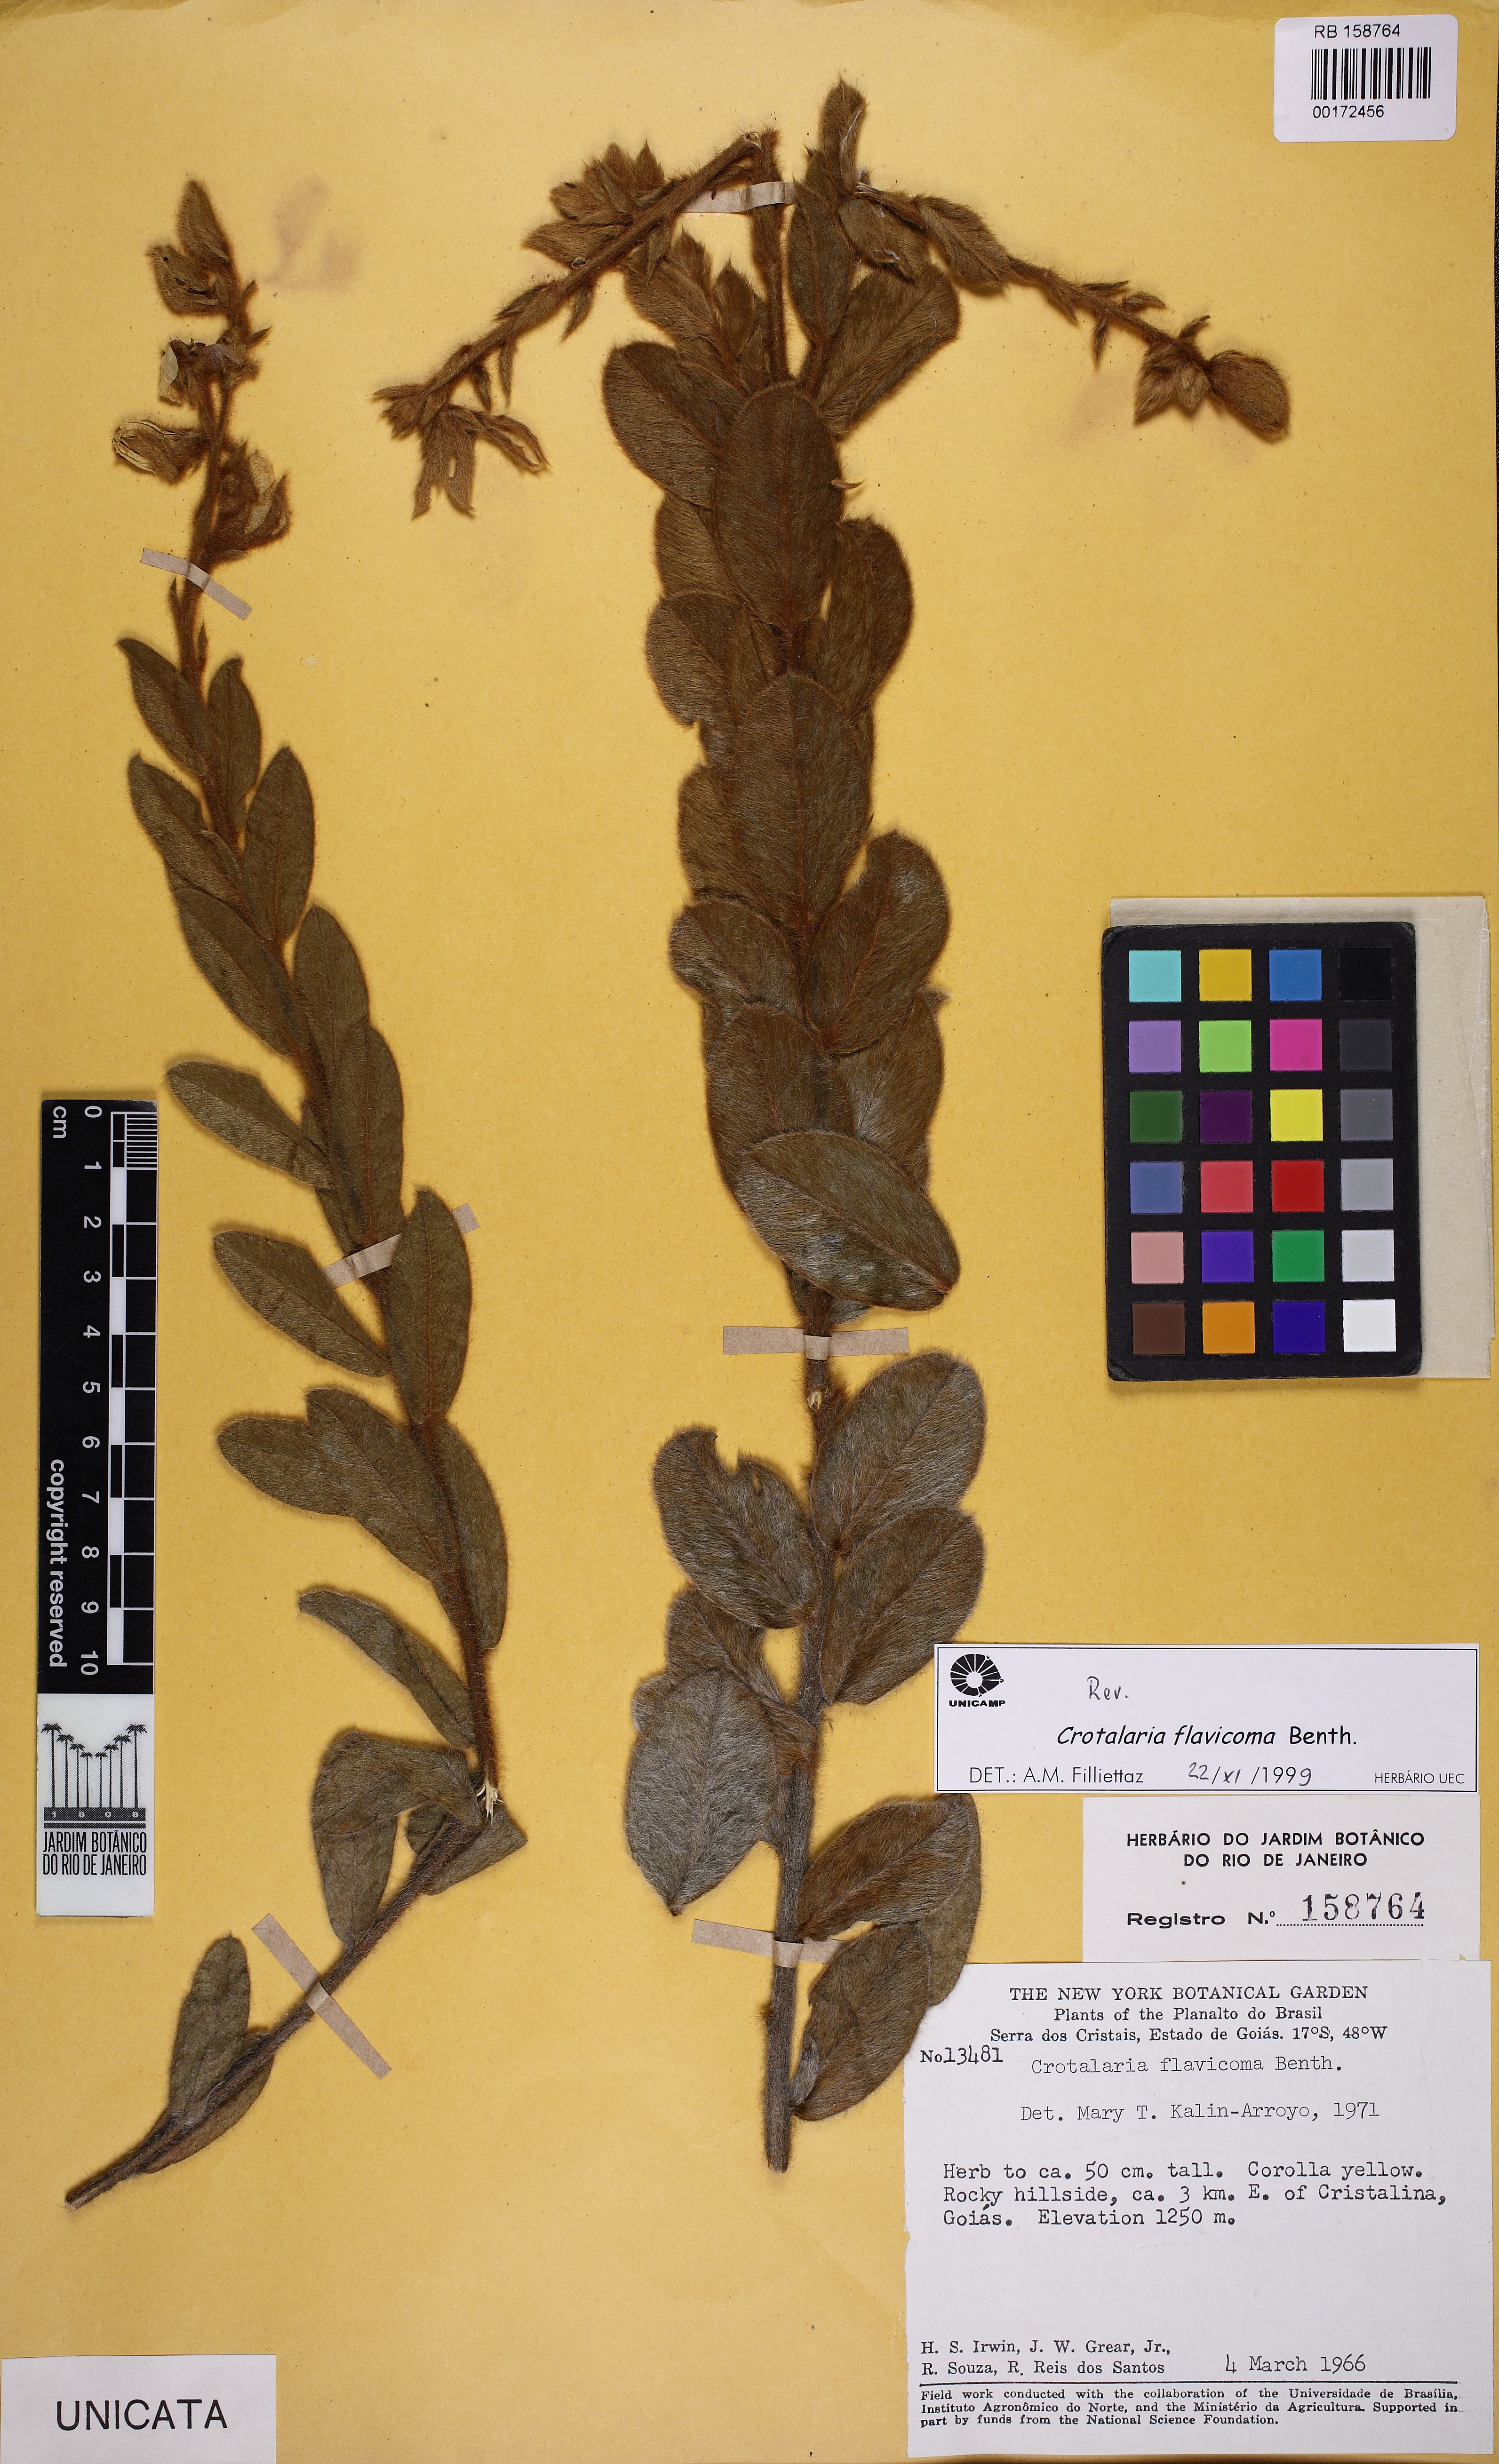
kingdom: Plantae
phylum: Tracheophyta
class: Magnoliopsida
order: Fabales
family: Fabaceae
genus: Crotalaria
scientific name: Crotalaria flavicoma
